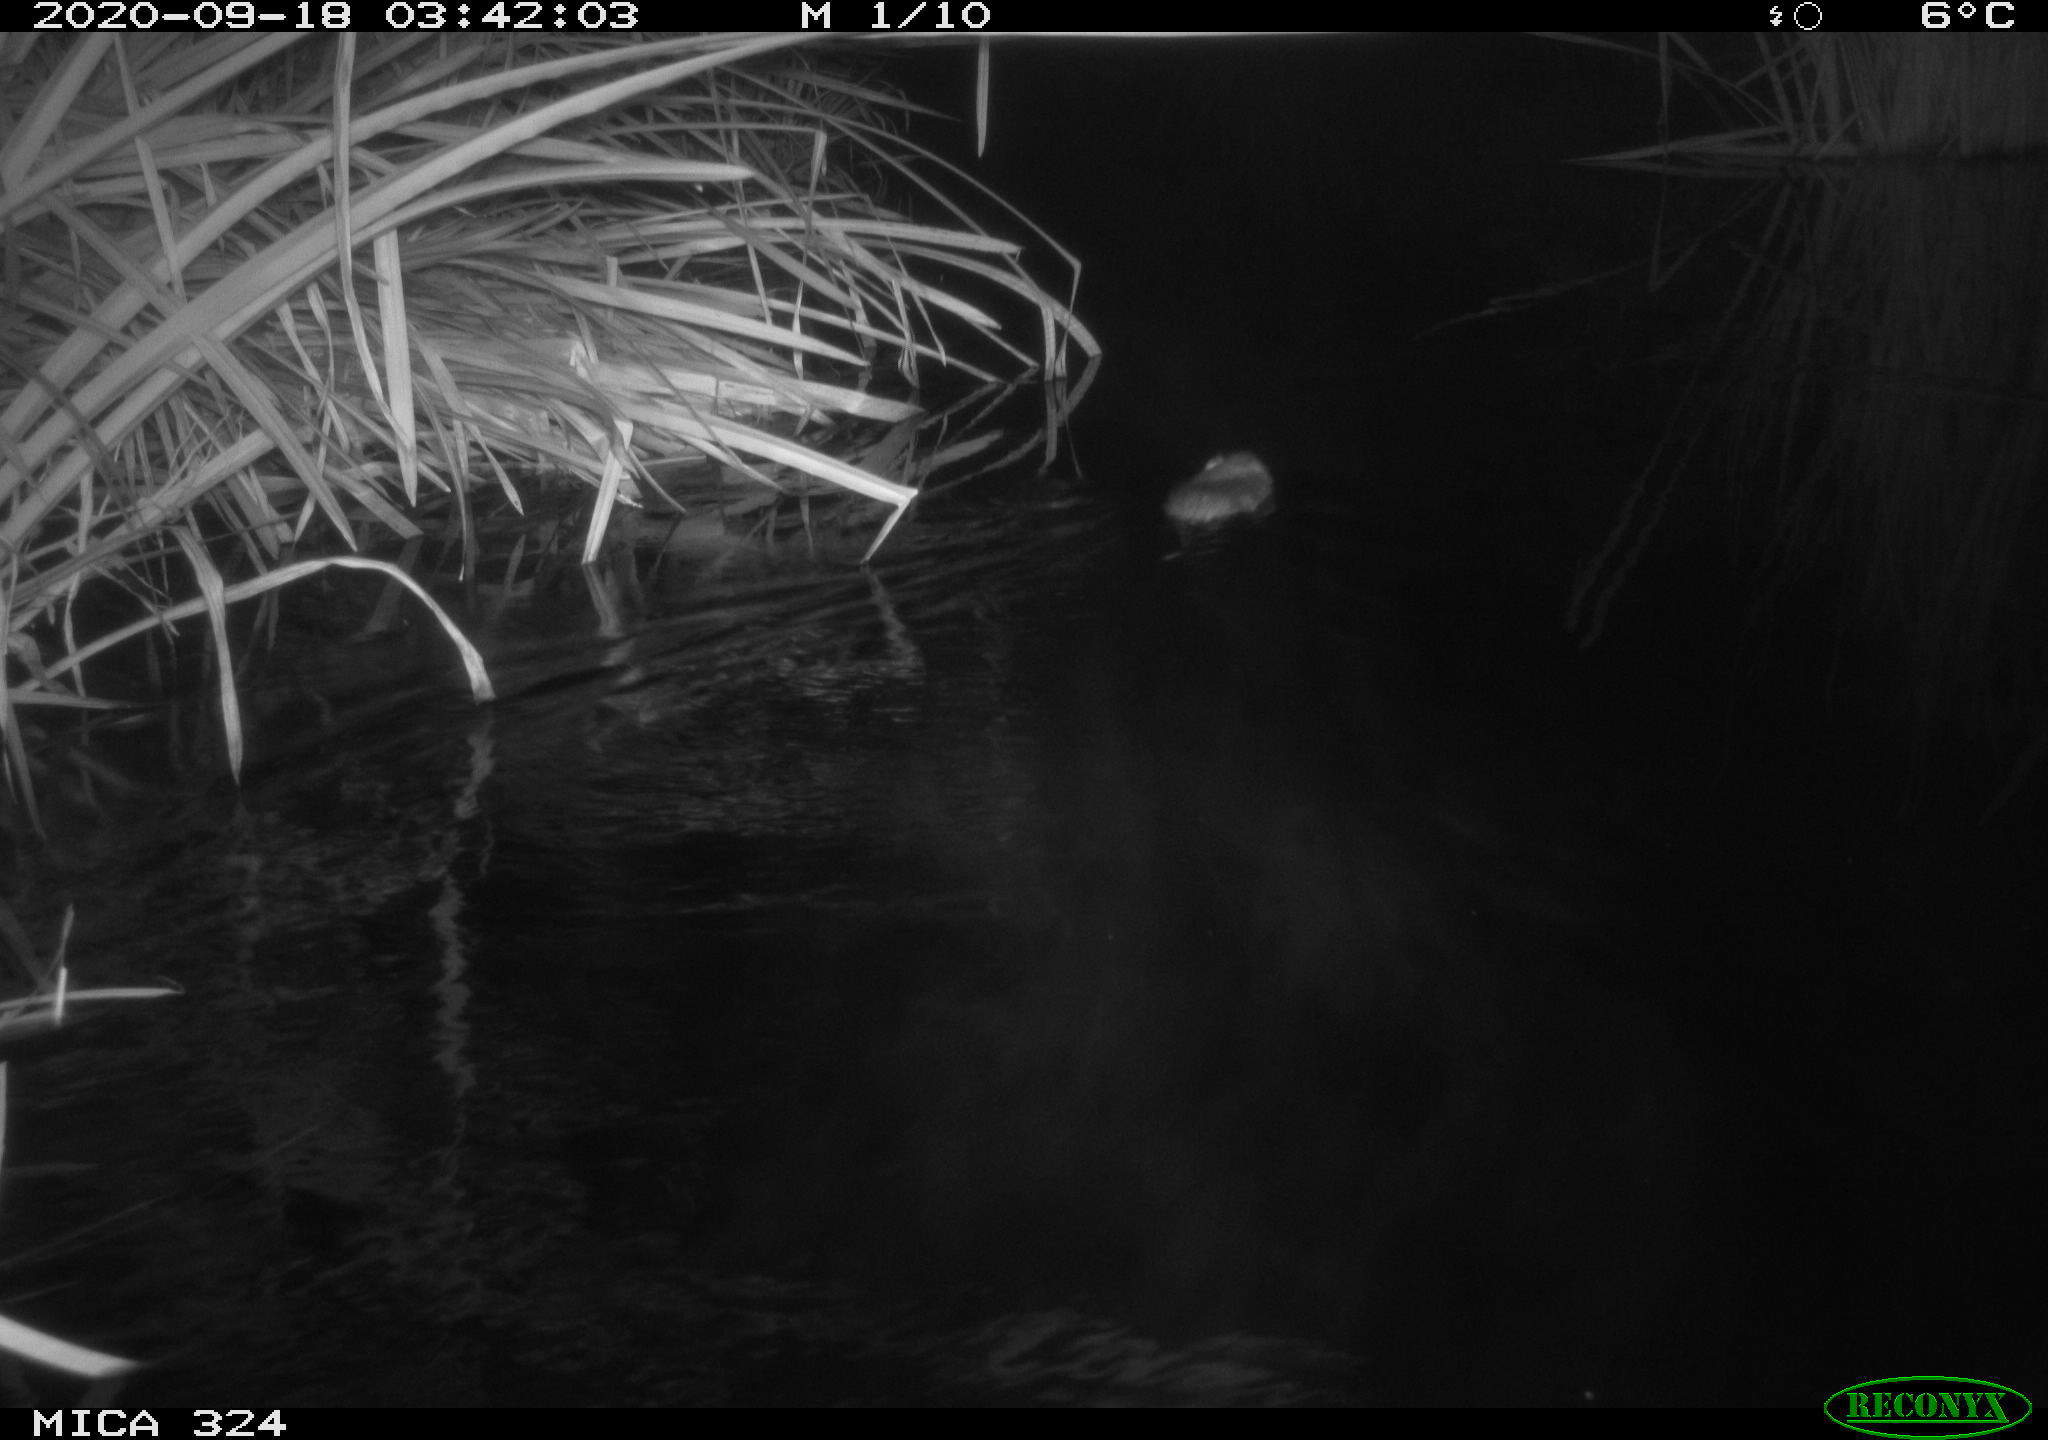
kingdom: Animalia
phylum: Chordata
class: Mammalia
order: Rodentia
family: Cricetidae
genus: Ondatra
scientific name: Ondatra zibethicus
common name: Muskrat
